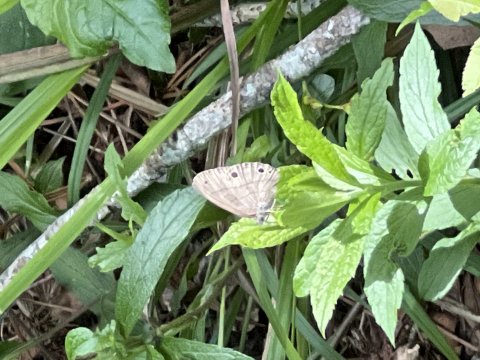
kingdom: Animalia
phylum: Arthropoda
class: Insecta
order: Lepidoptera
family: Nymphalidae
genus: Hermeuptychia
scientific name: Hermeuptychia hermes
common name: Carolina Satyr
